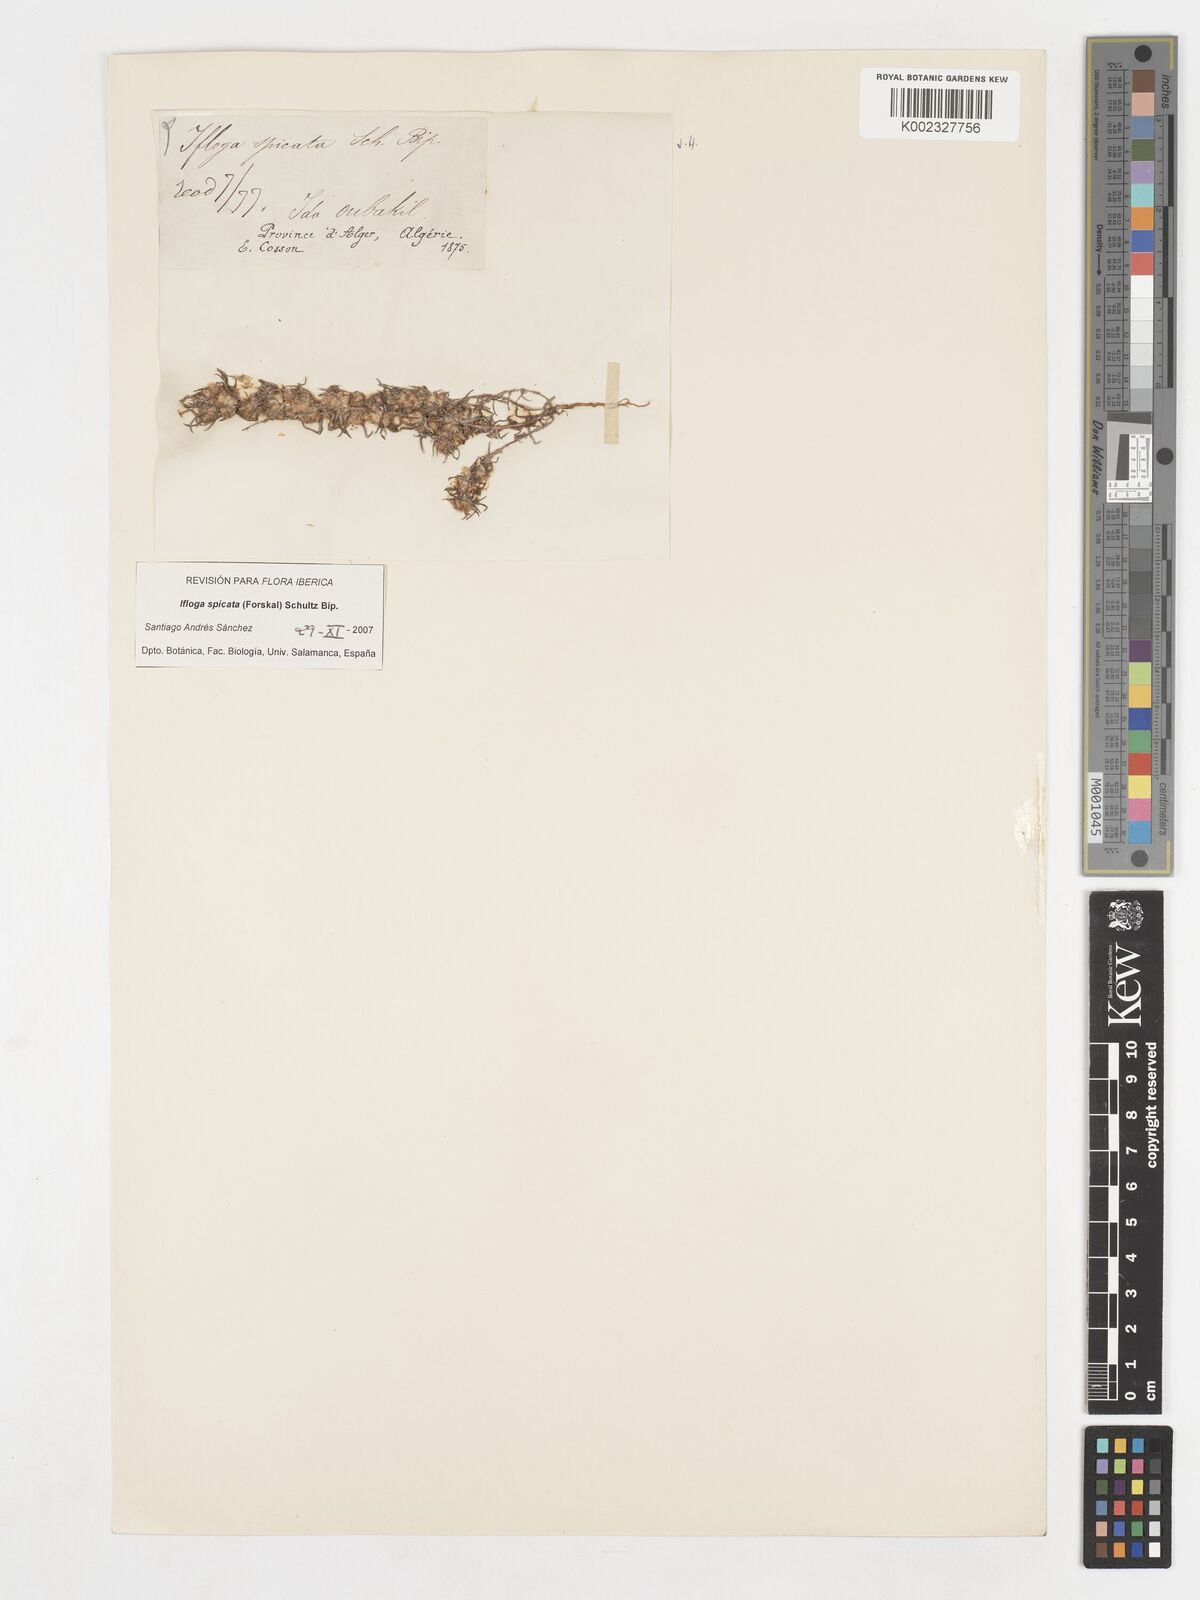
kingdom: Plantae
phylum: Tracheophyta
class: Magnoliopsida
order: Asterales
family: Asteraceae
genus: Ifloga
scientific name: Ifloga spicata
